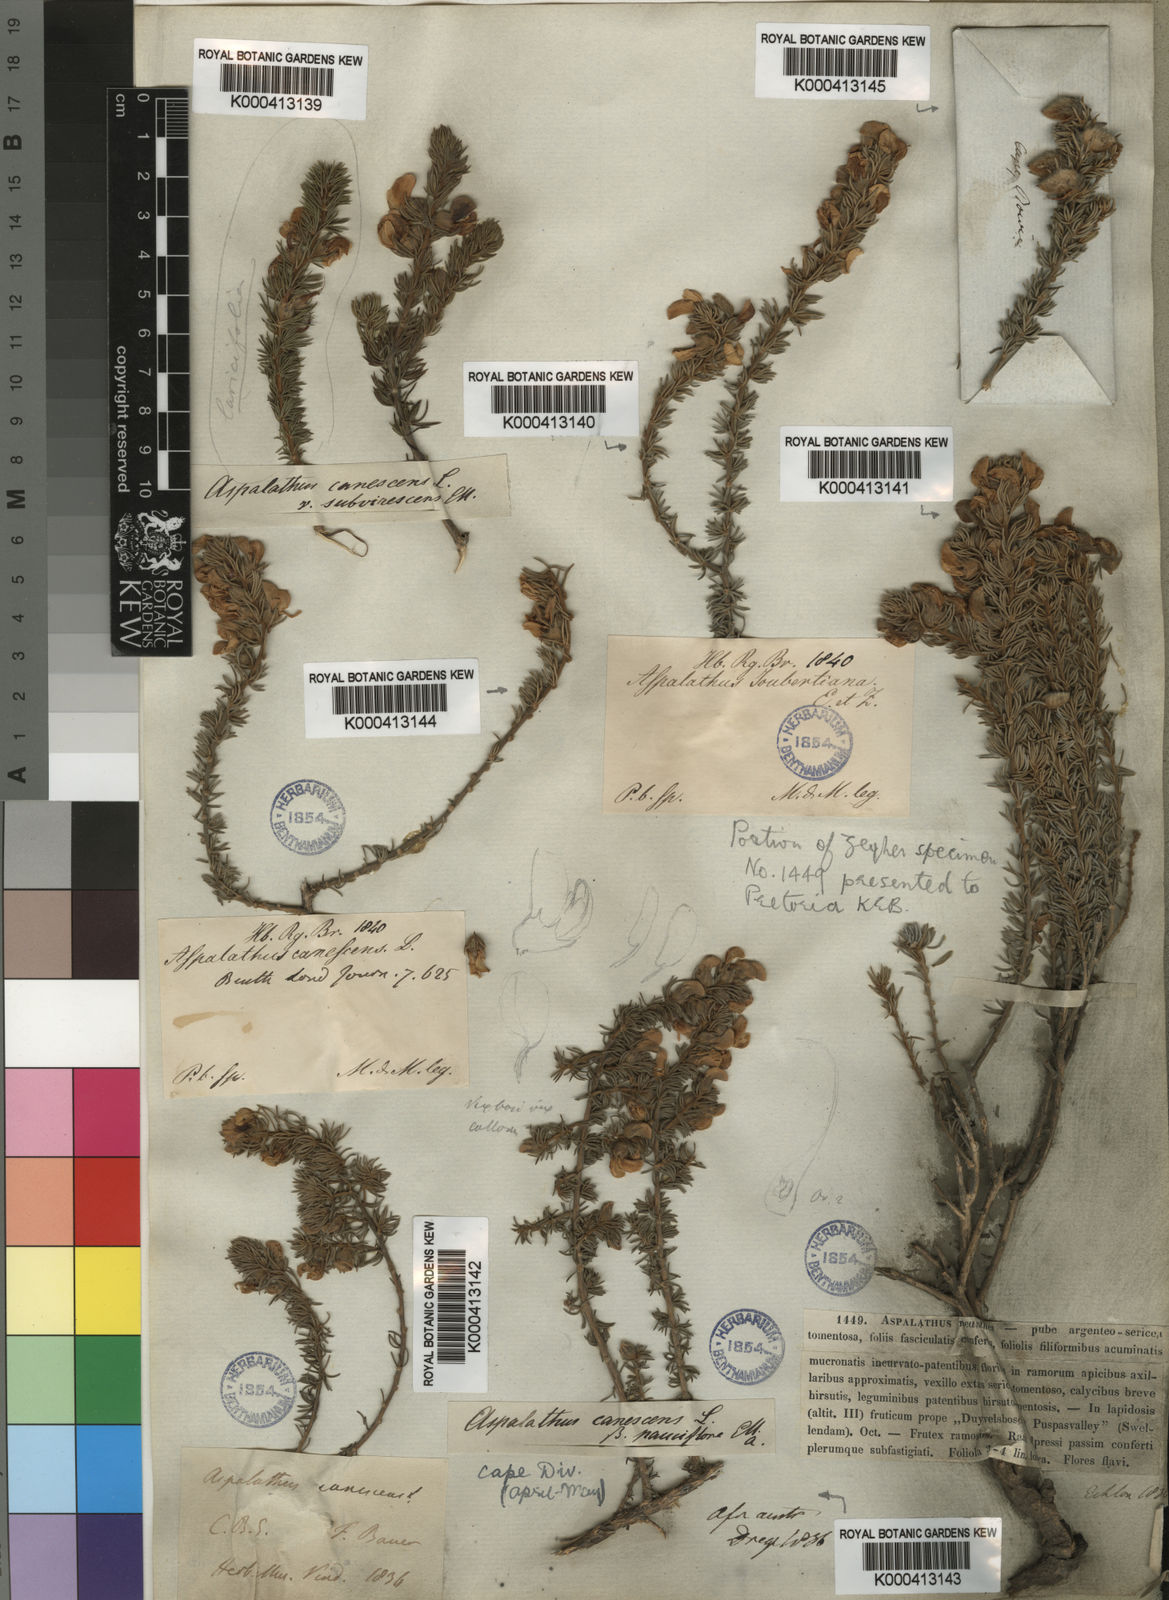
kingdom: Plantae
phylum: Tracheophyta
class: Magnoliopsida
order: Fabales
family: Fabaceae
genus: Aspalathus
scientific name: Aspalathus laricifolia
